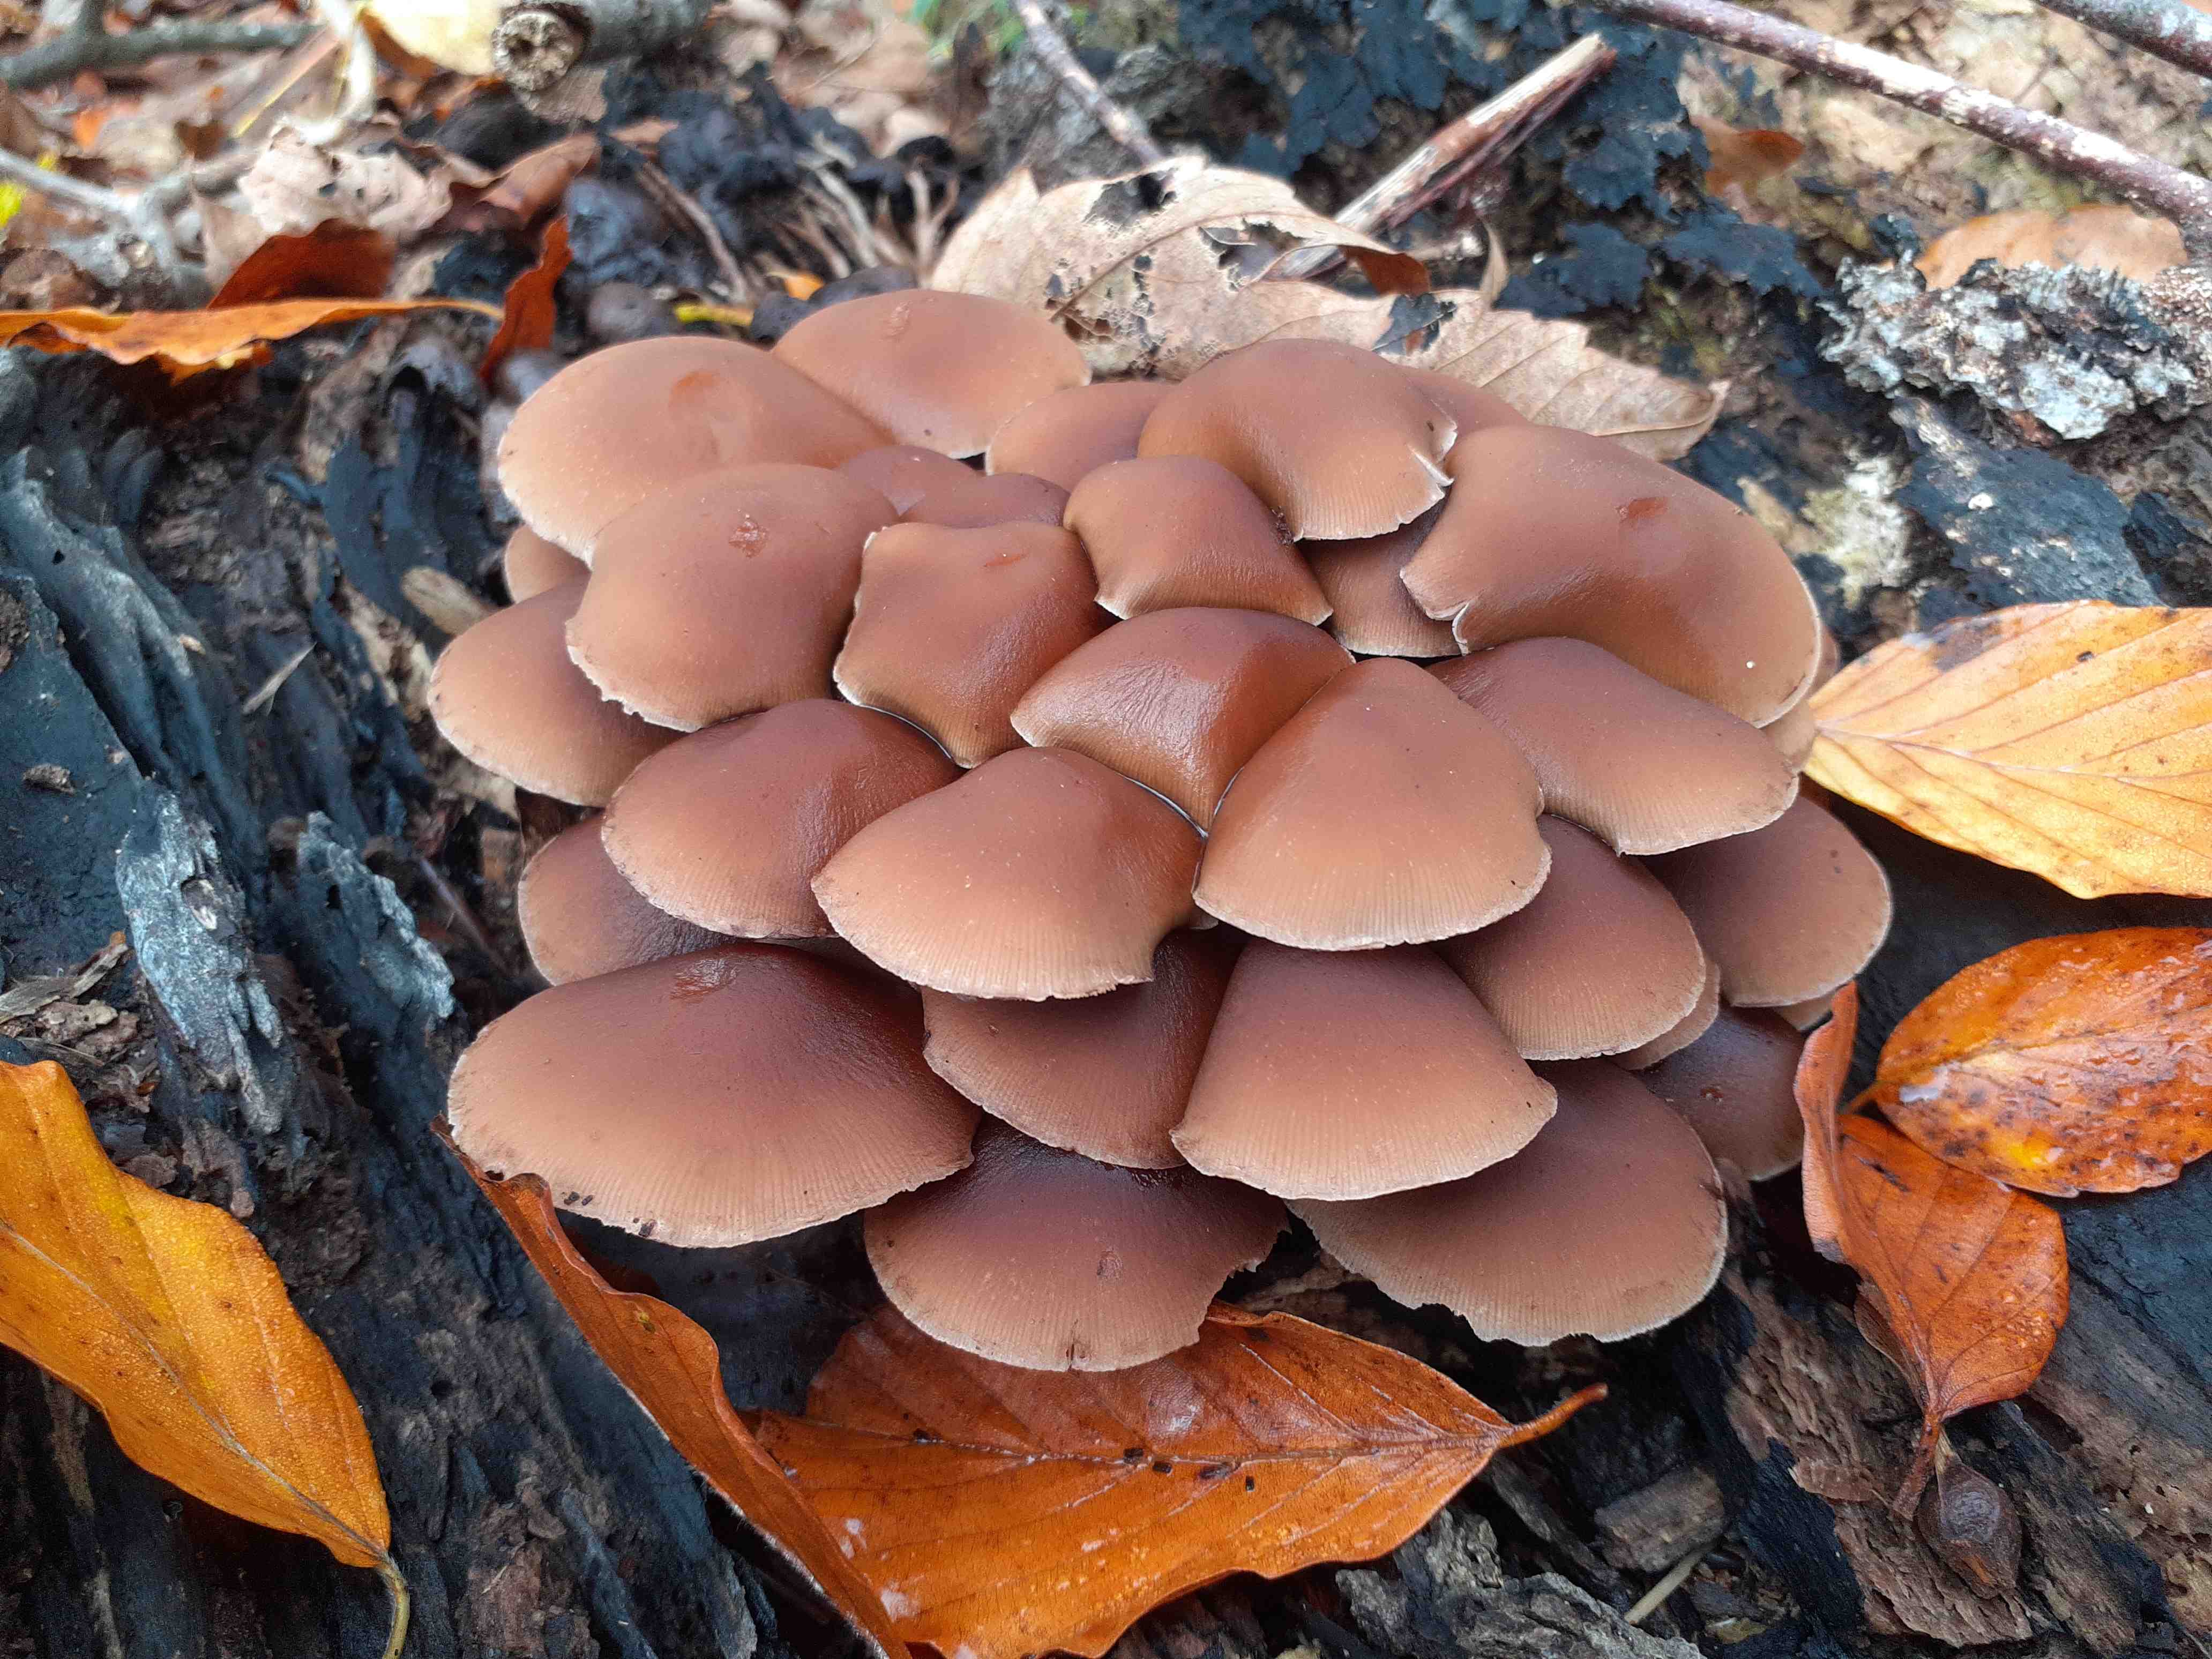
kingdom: Fungi
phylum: Basidiomycota
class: Agaricomycetes
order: Agaricales
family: Psathyrellaceae
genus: Psathyrella
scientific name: Psathyrella piluliformis
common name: lysstokket mørkhat
